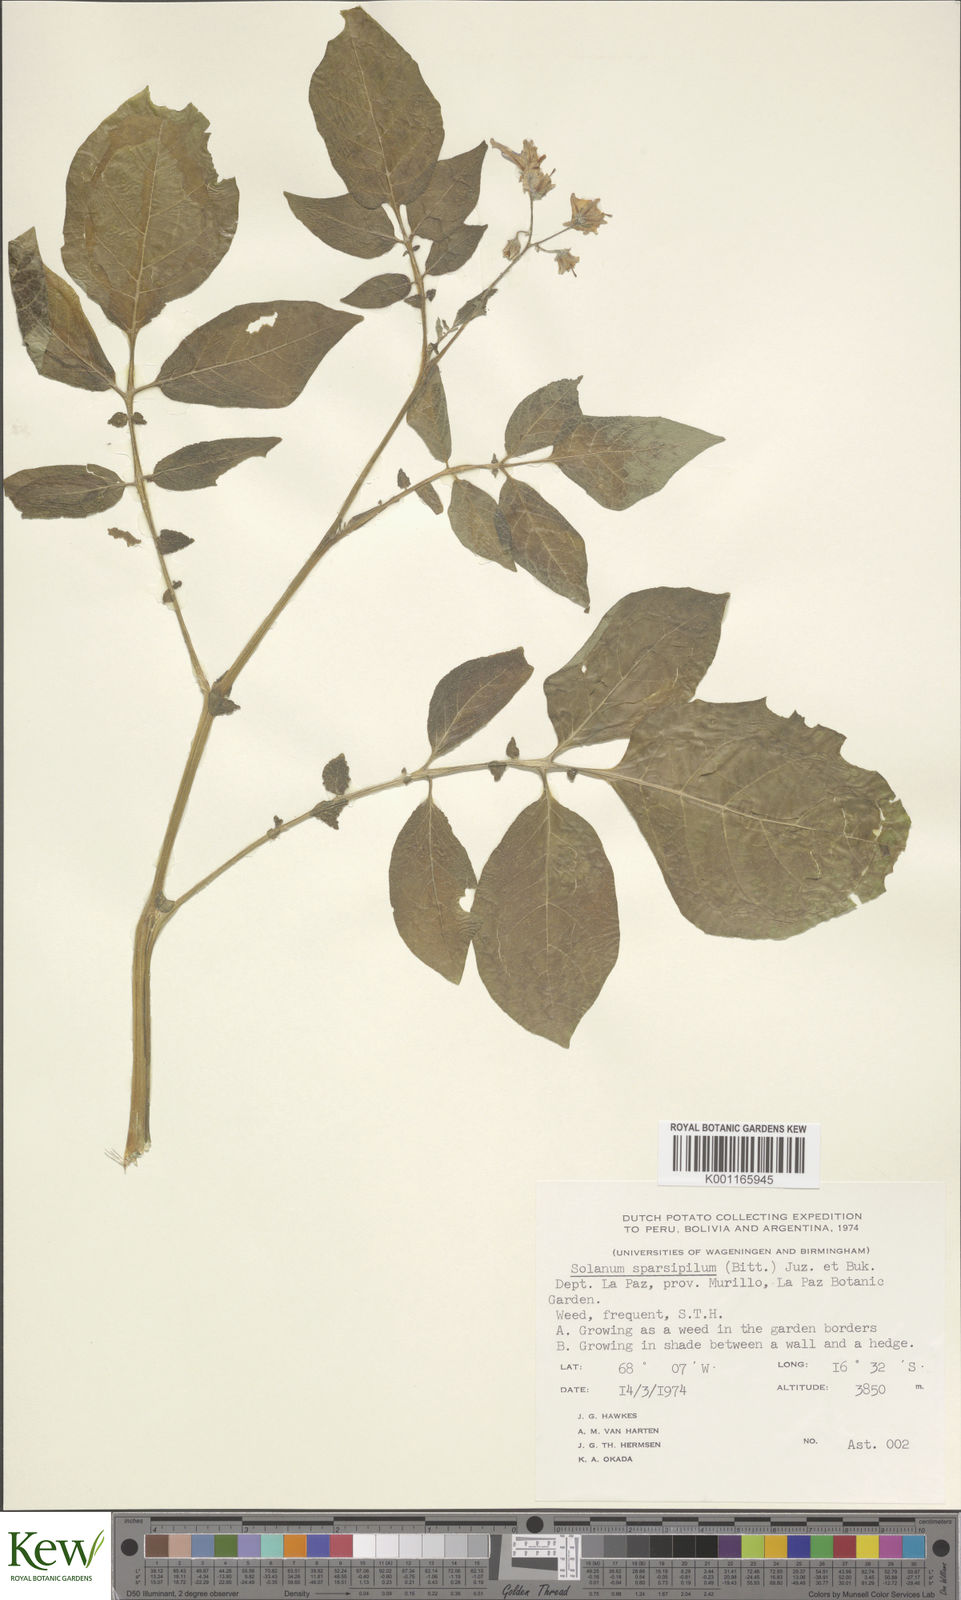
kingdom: Plantae
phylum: Tracheophyta
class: Magnoliopsida
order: Solanales
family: Solanaceae
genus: Solanum
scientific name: Solanum brevicaule
